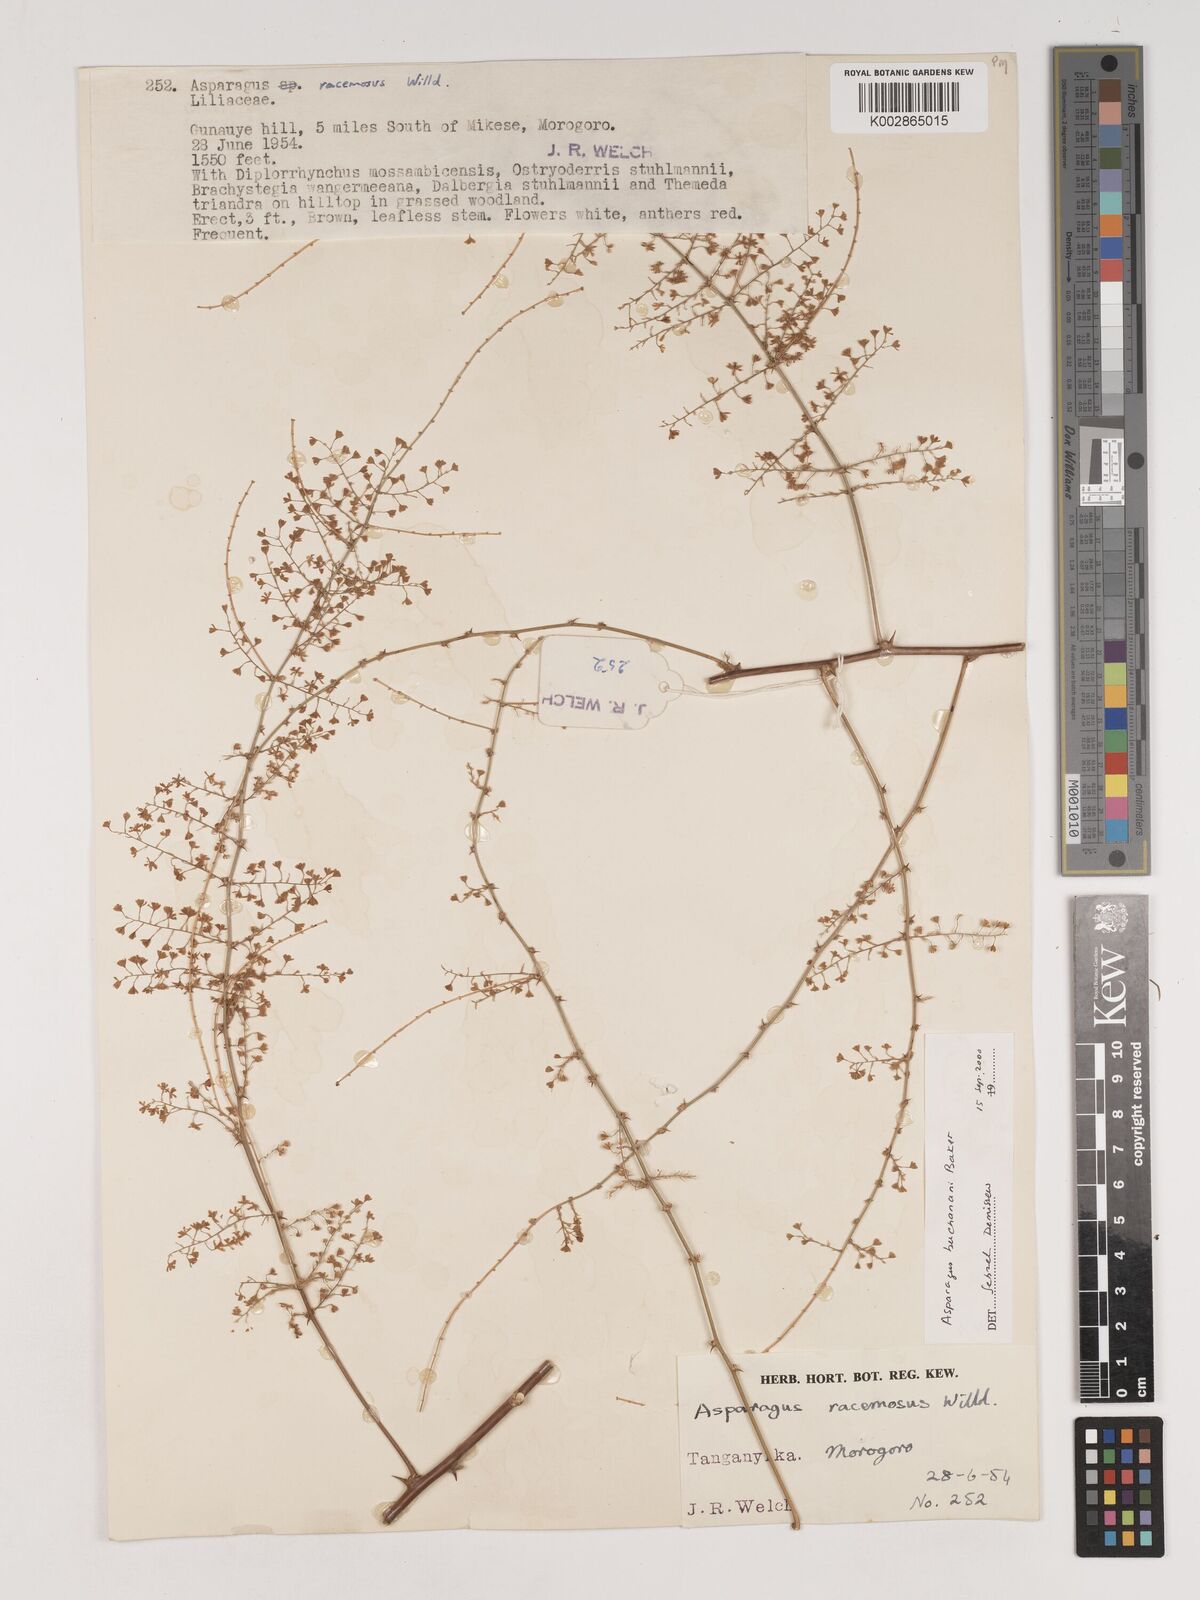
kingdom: Plantae
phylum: Tracheophyta
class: Liliopsida
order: Asparagales
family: Asparagaceae
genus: Asparagus
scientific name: Asparagus buchananii
